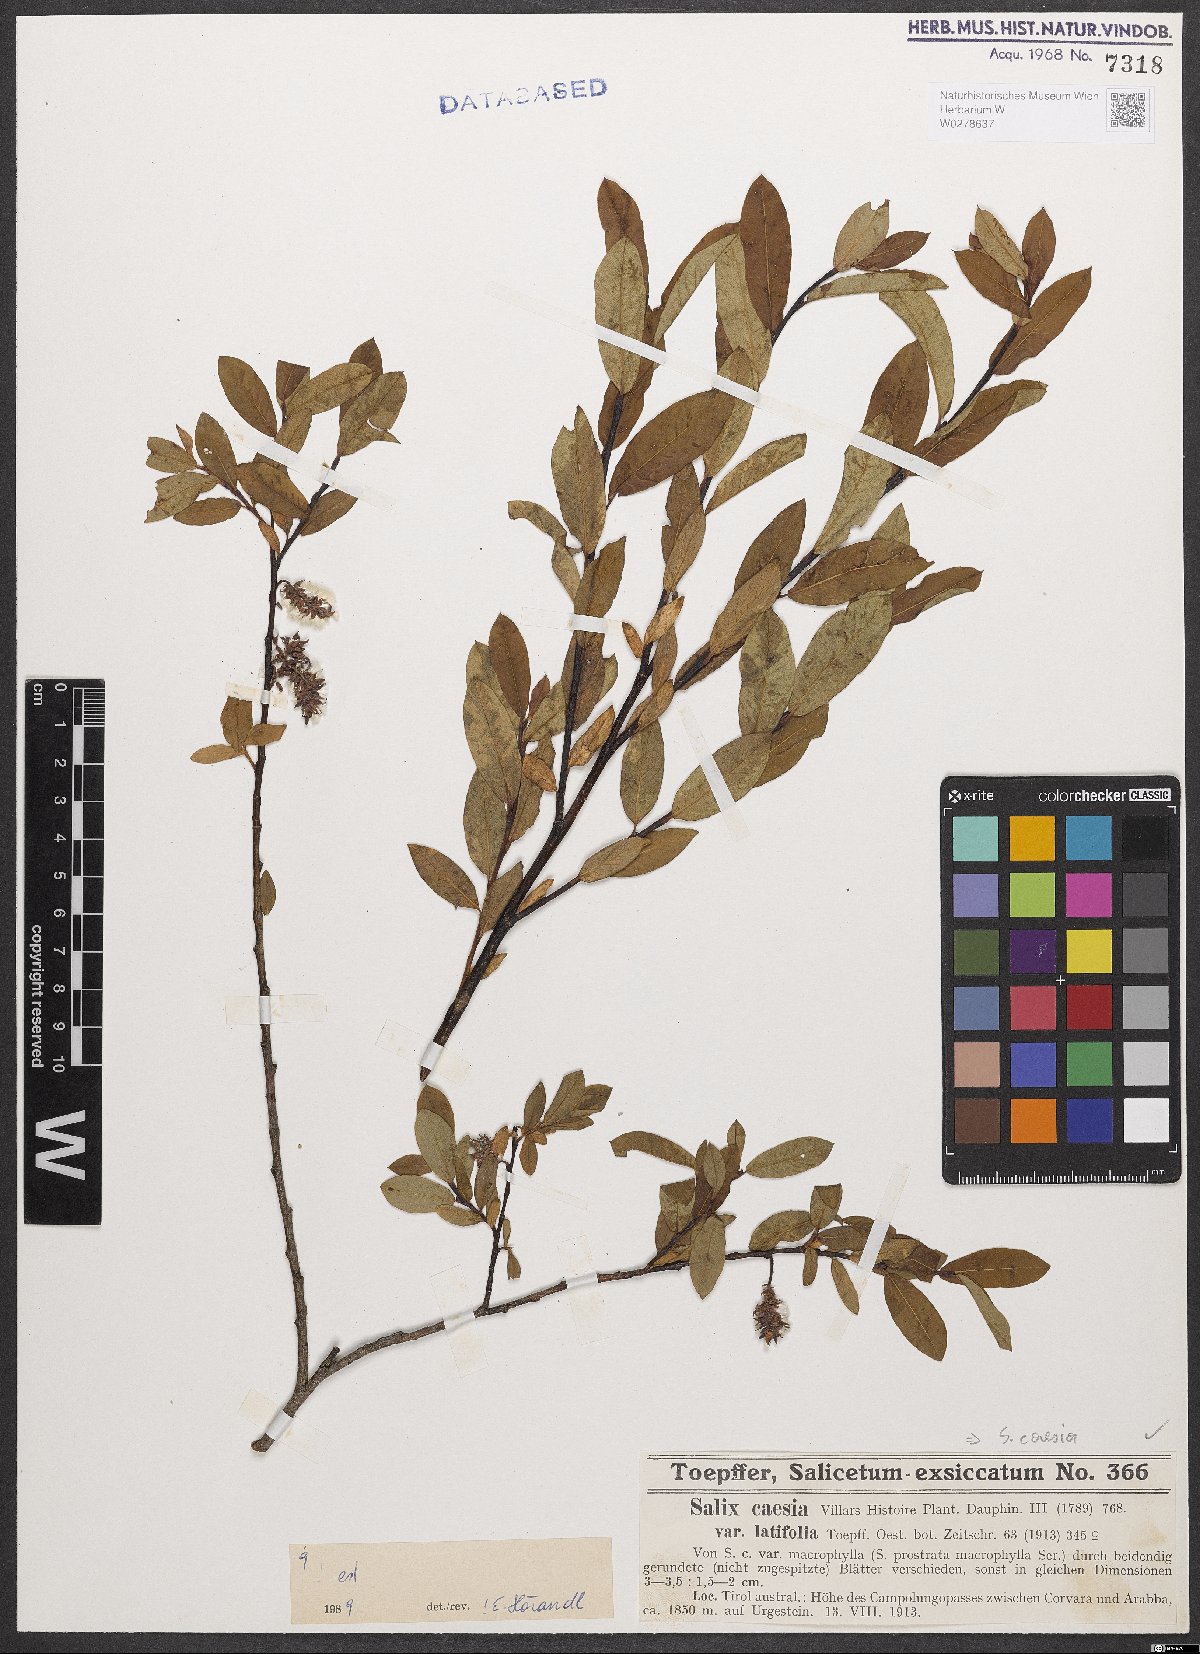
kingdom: Plantae
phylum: Tracheophyta
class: Magnoliopsida
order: Malpighiales
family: Salicaceae
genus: Salix
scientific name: Salix caesia
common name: Blue willow
